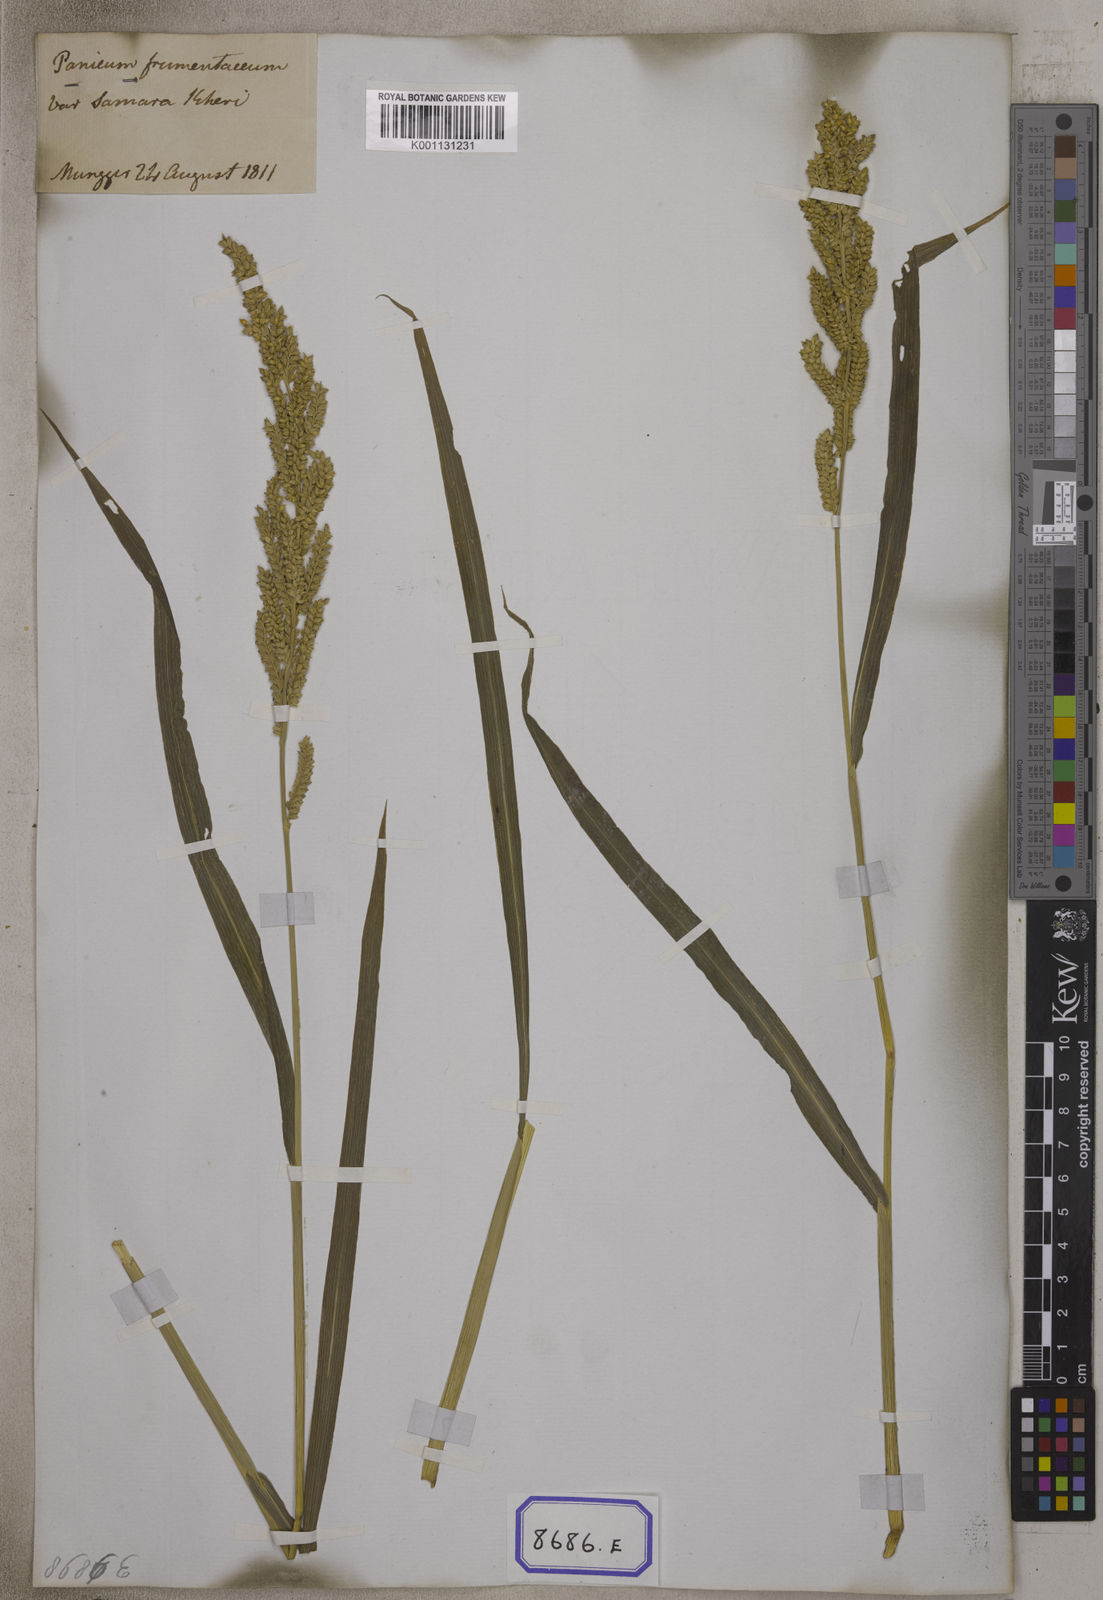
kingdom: Plantae
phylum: Tracheophyta
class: Liliopsida
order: Poales
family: Poaceae
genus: Panicum
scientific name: Panicum
